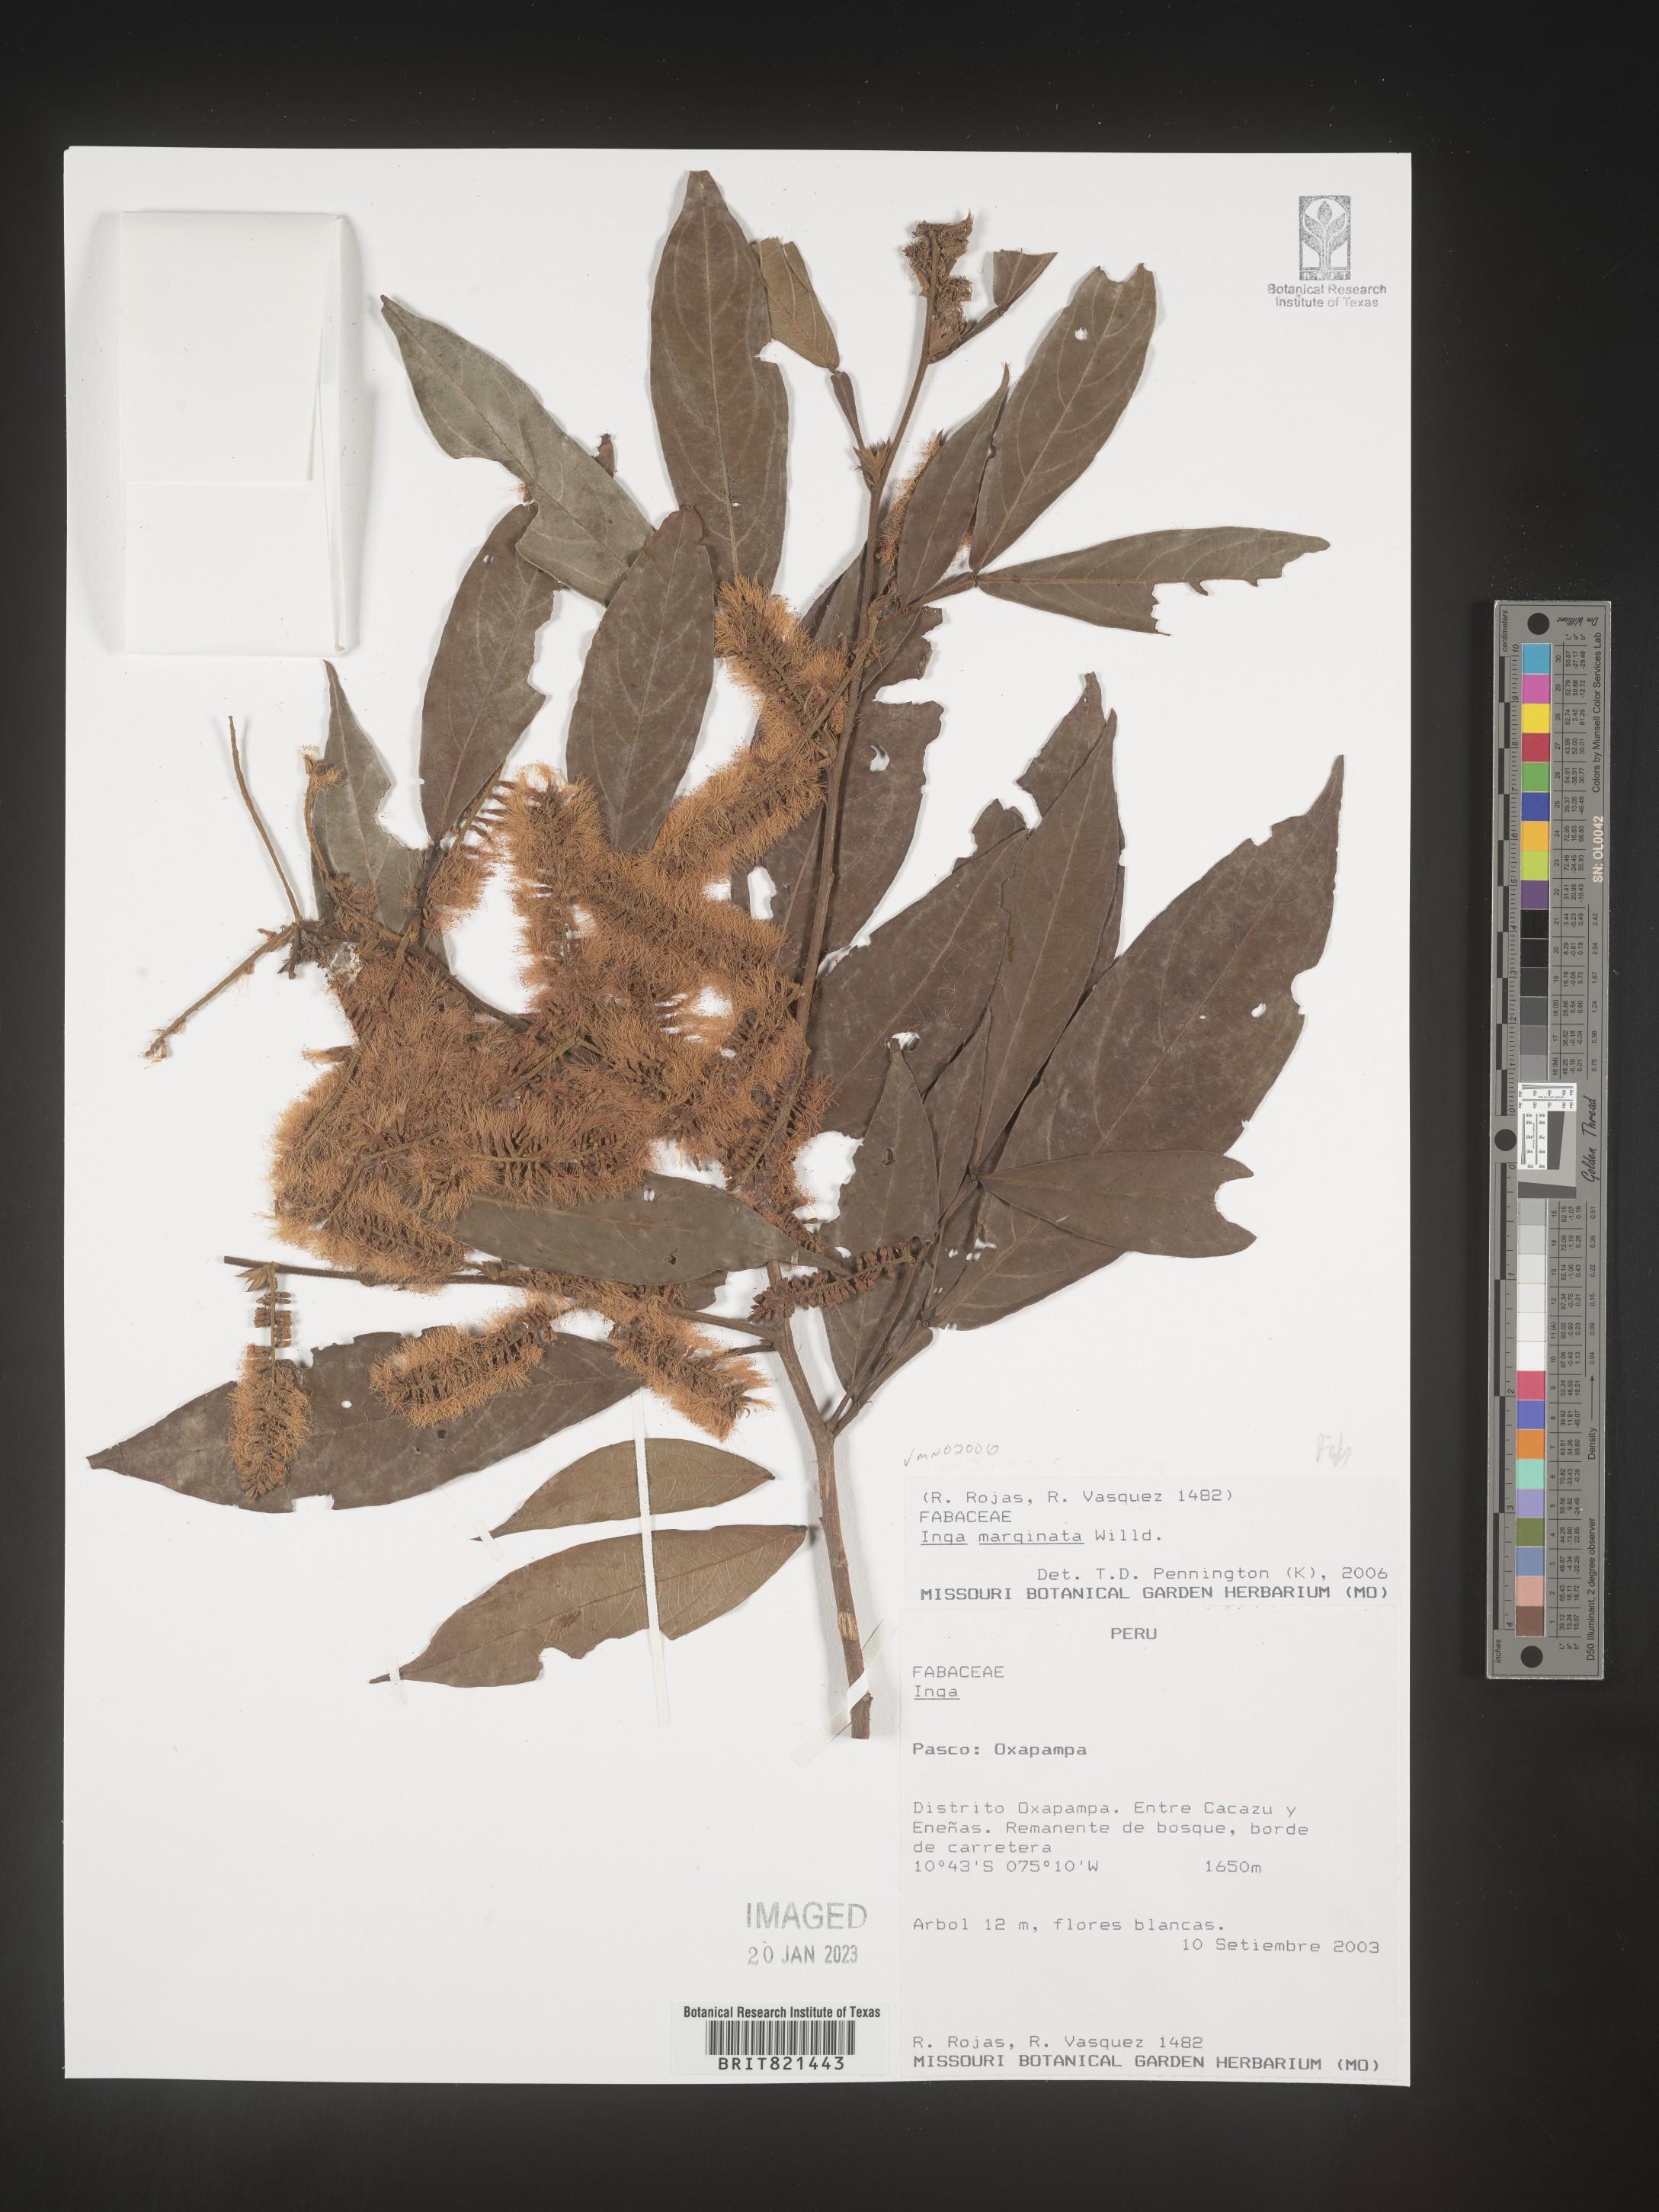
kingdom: Plantae
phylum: Tracheophyta
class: Magnoliopsida
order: Fabales
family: Fabaceae
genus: Inga
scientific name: Inga
